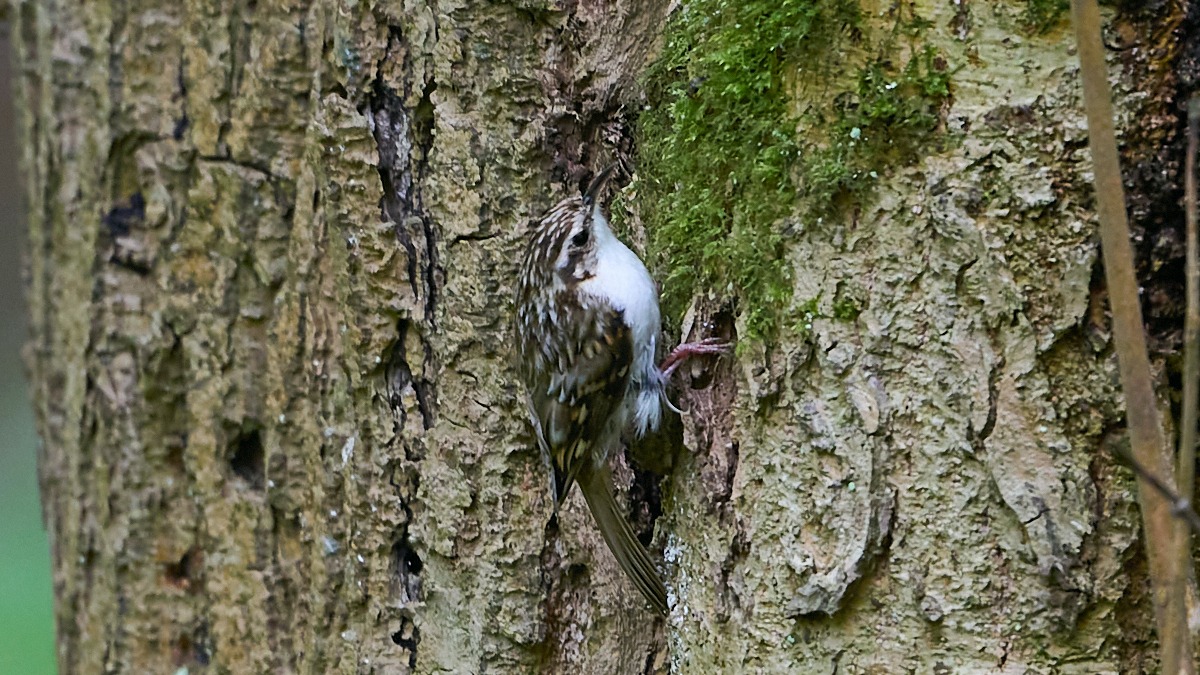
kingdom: Animalia
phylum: Chordata
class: Aves
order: Passeriformes
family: Certhiidae
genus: Certhia
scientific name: Certhia familiaris
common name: Træløber
